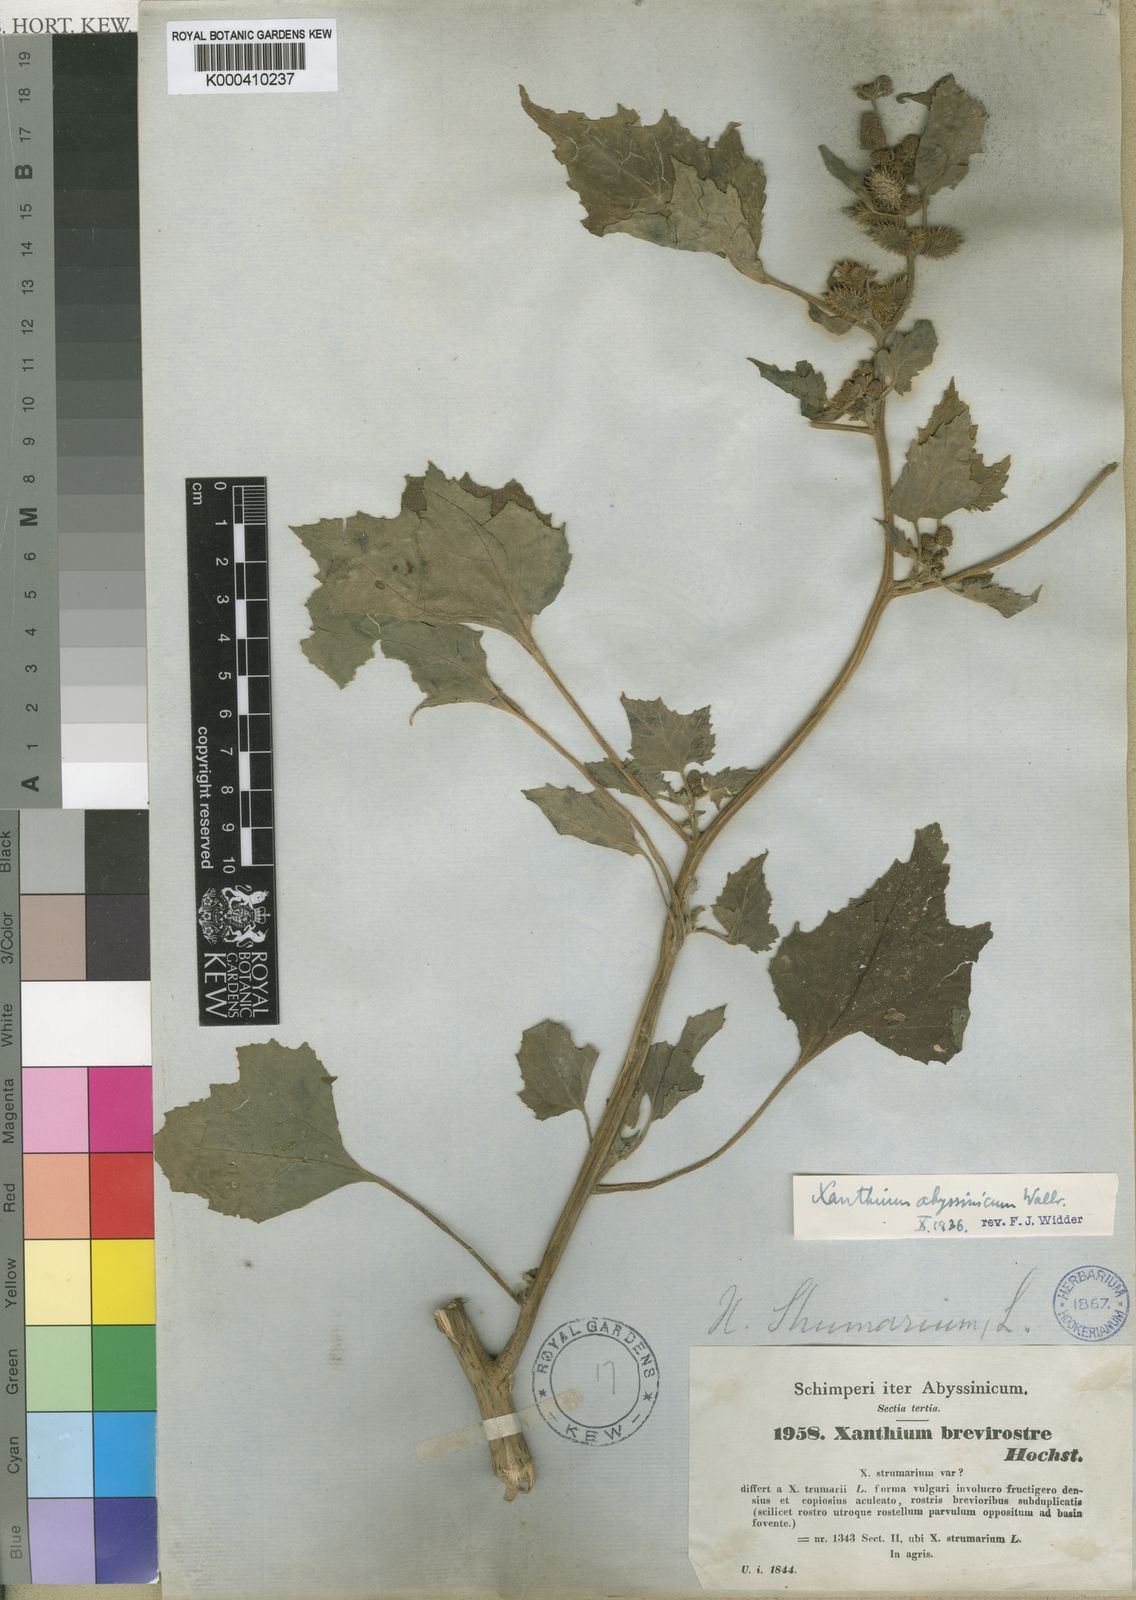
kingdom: Plantae
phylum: Tracheophyta
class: Magnoliopsida
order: Asterales
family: Asteraceae
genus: Xanthium
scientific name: Xanthium strumarium
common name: Rough cocklebur
